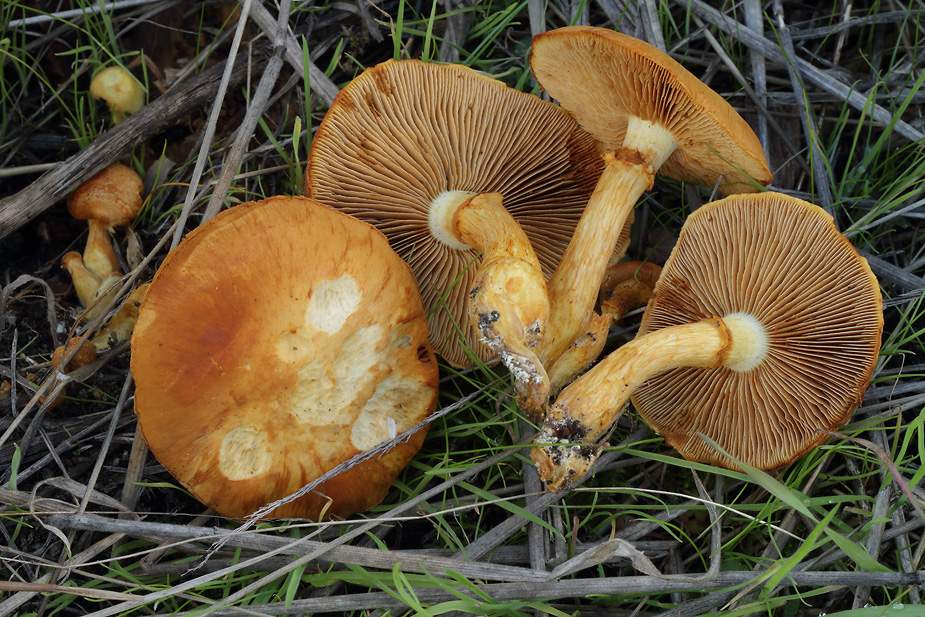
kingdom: Fungi
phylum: Basidiomycota
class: Agaricomycetes
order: Agaricales
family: Hymenogastraceae
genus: Gymnopilus
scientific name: Gymnopilus spectabilis
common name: fibret flammehat
